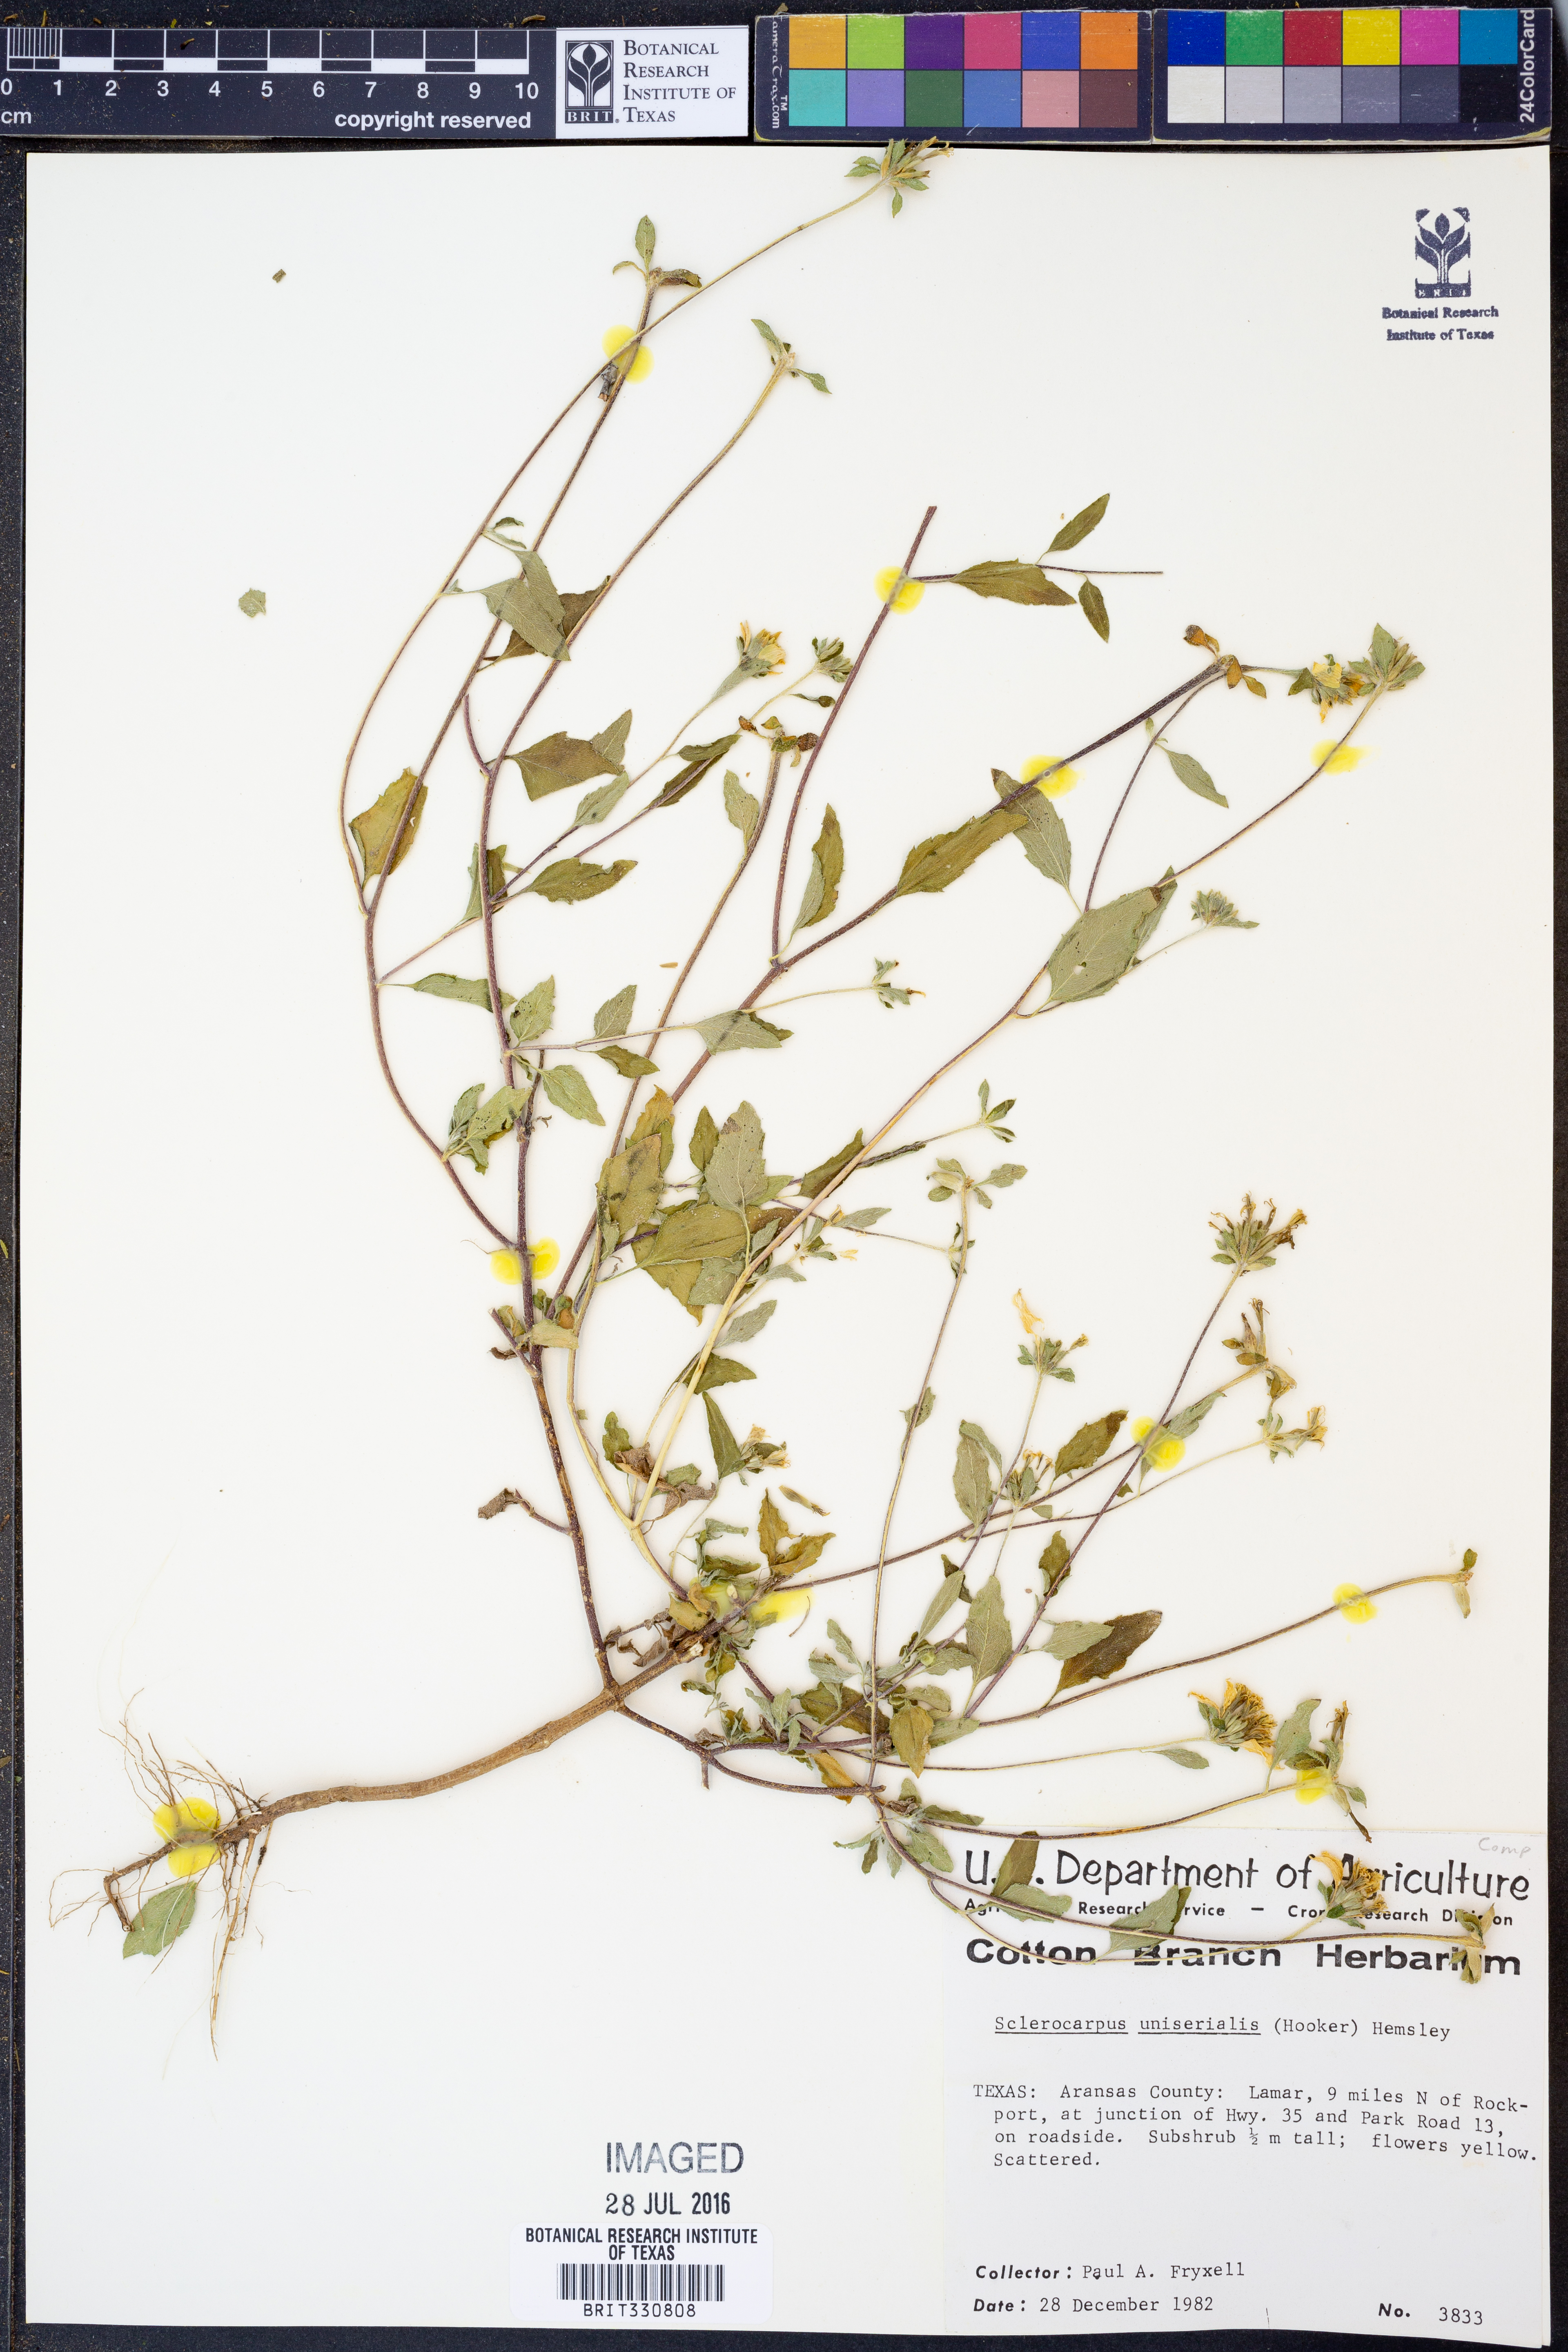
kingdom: Plantae
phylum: Tracheophyta
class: Magnoliopsida
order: Asterales
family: Asteraceae
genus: Sclerocarpus
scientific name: Sclerocarpus uniserialis
